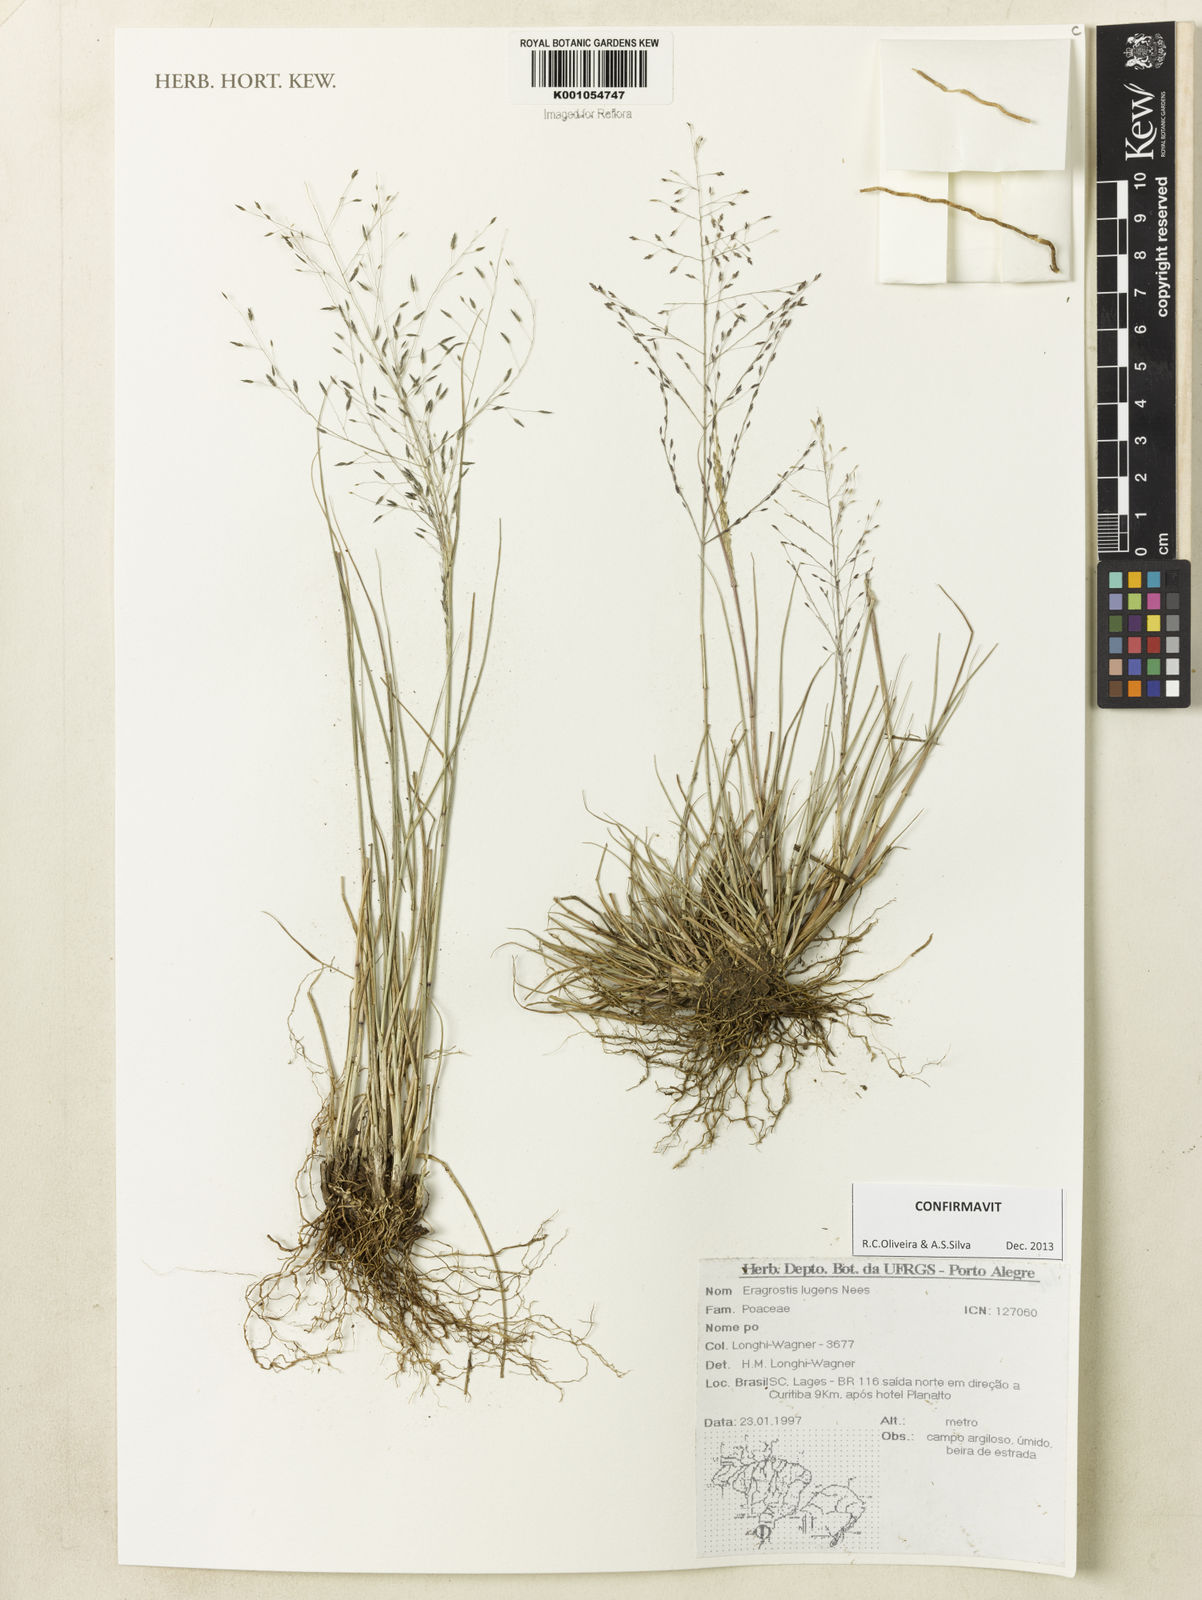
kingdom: Plantae
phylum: Tracheophyta
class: Liliopsida
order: Poales
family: Poaceae
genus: Eragrostis
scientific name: Eragrostis lugens
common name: Mourning love grass
